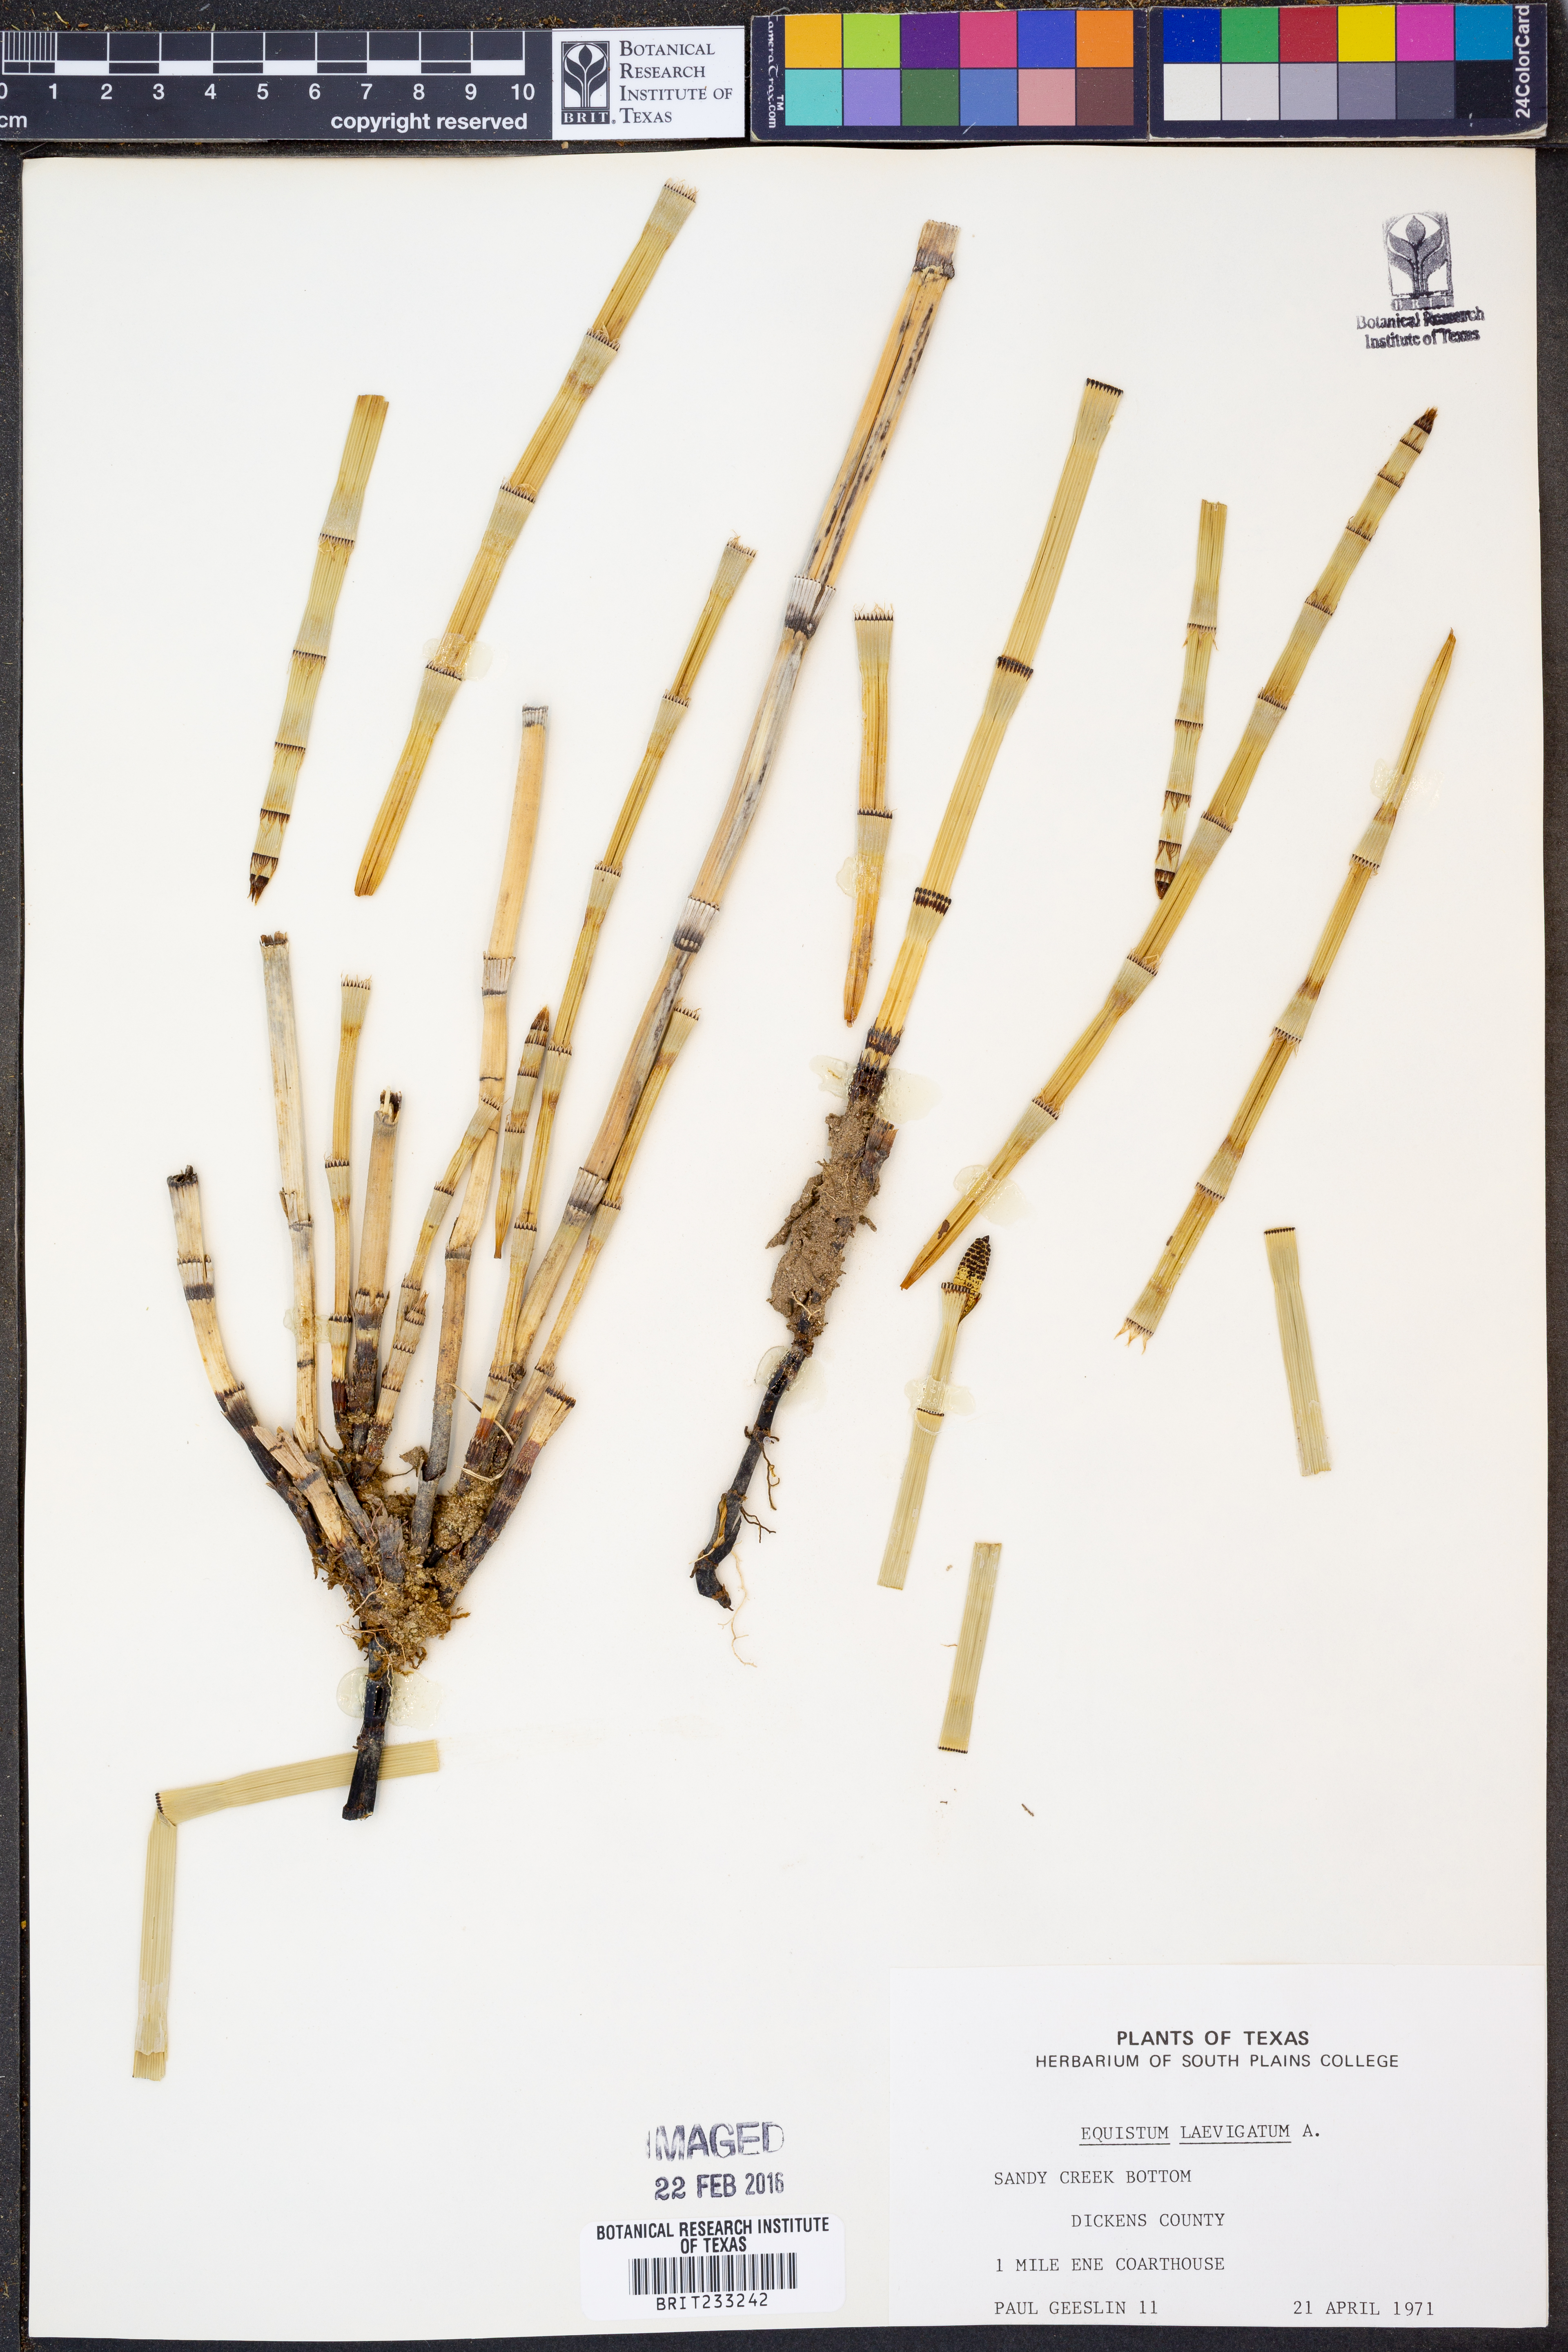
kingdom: Plantae
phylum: Tracheophyta
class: Polypodiopsida
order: Equisetales
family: Equisetaceae
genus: Equisetum
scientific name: Equisetum laevigatum
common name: Smooth scouring-rush
